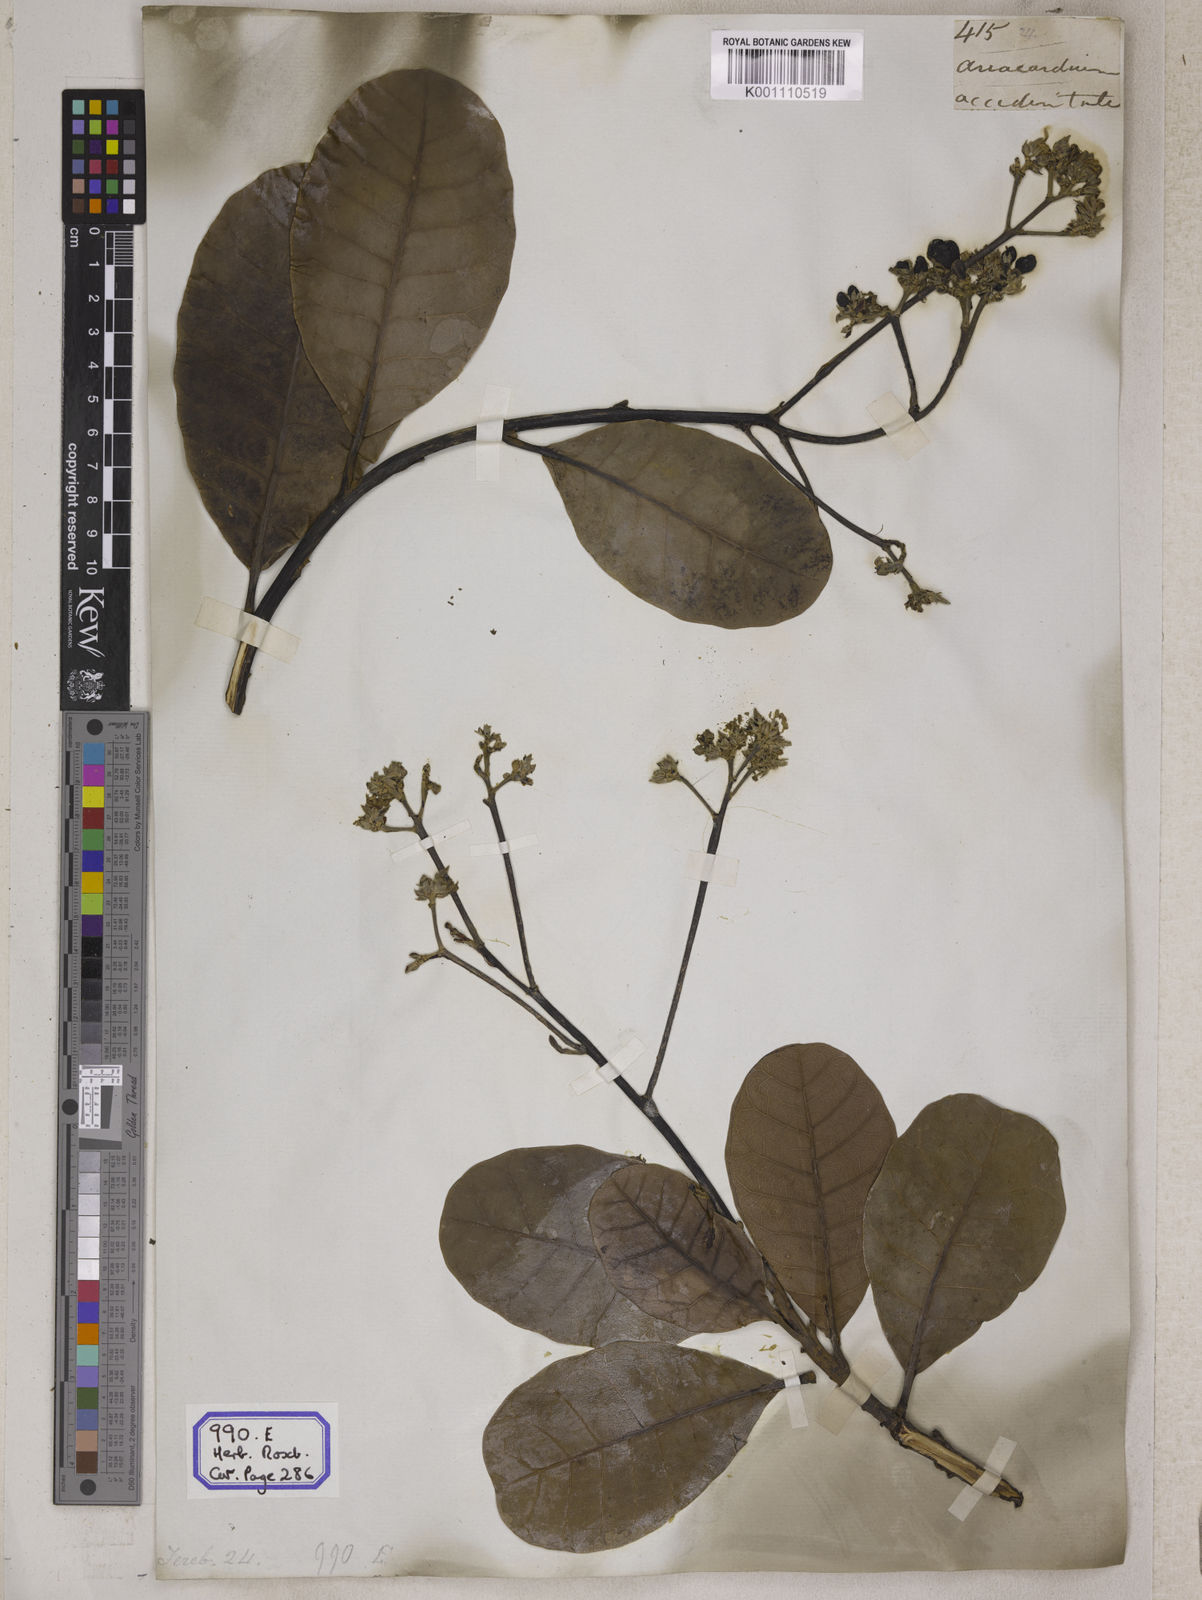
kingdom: Plantae
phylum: Tracheophyta
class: Magnoliopsida
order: Sapindales
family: Anacardiaceae
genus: Anacardium
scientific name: Anacardium occidentale
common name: Cashew
